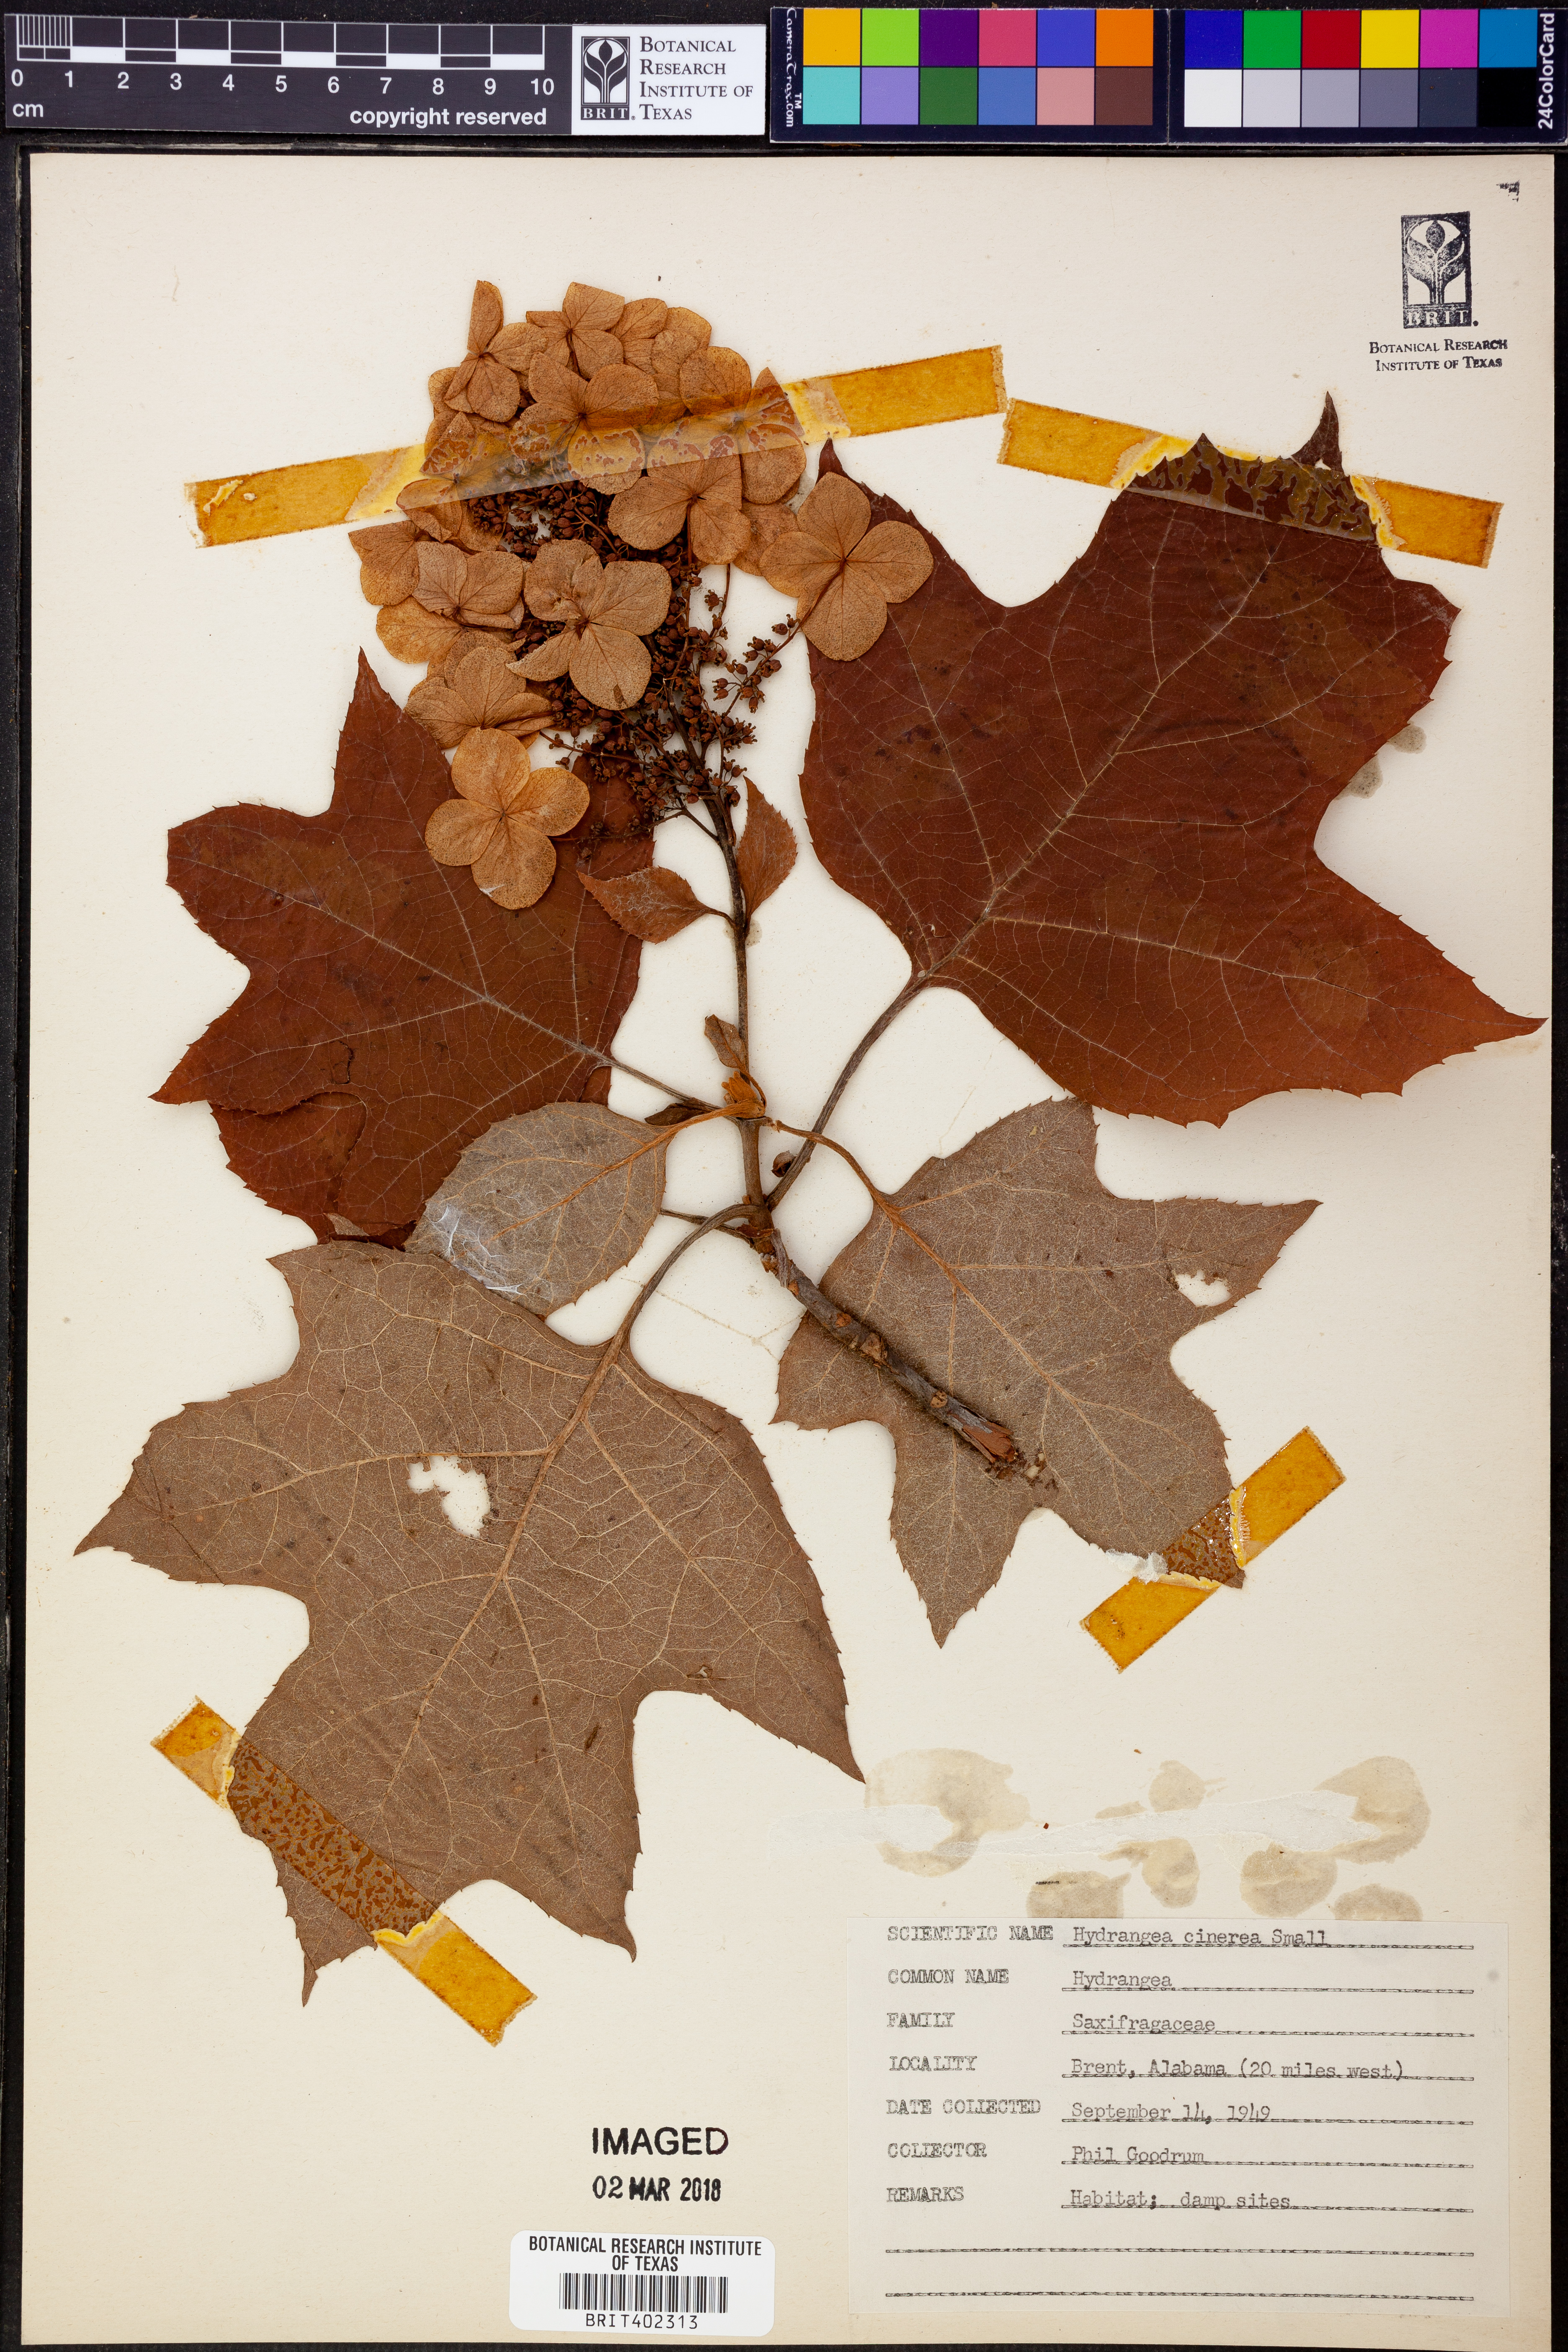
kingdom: Plantae
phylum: Tracheophyta
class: Magnoliopsida
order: Cornales
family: Hydrangeaceae
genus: Hydrangea
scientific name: Hydrangea cinerea
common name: Ashy hydrangea
